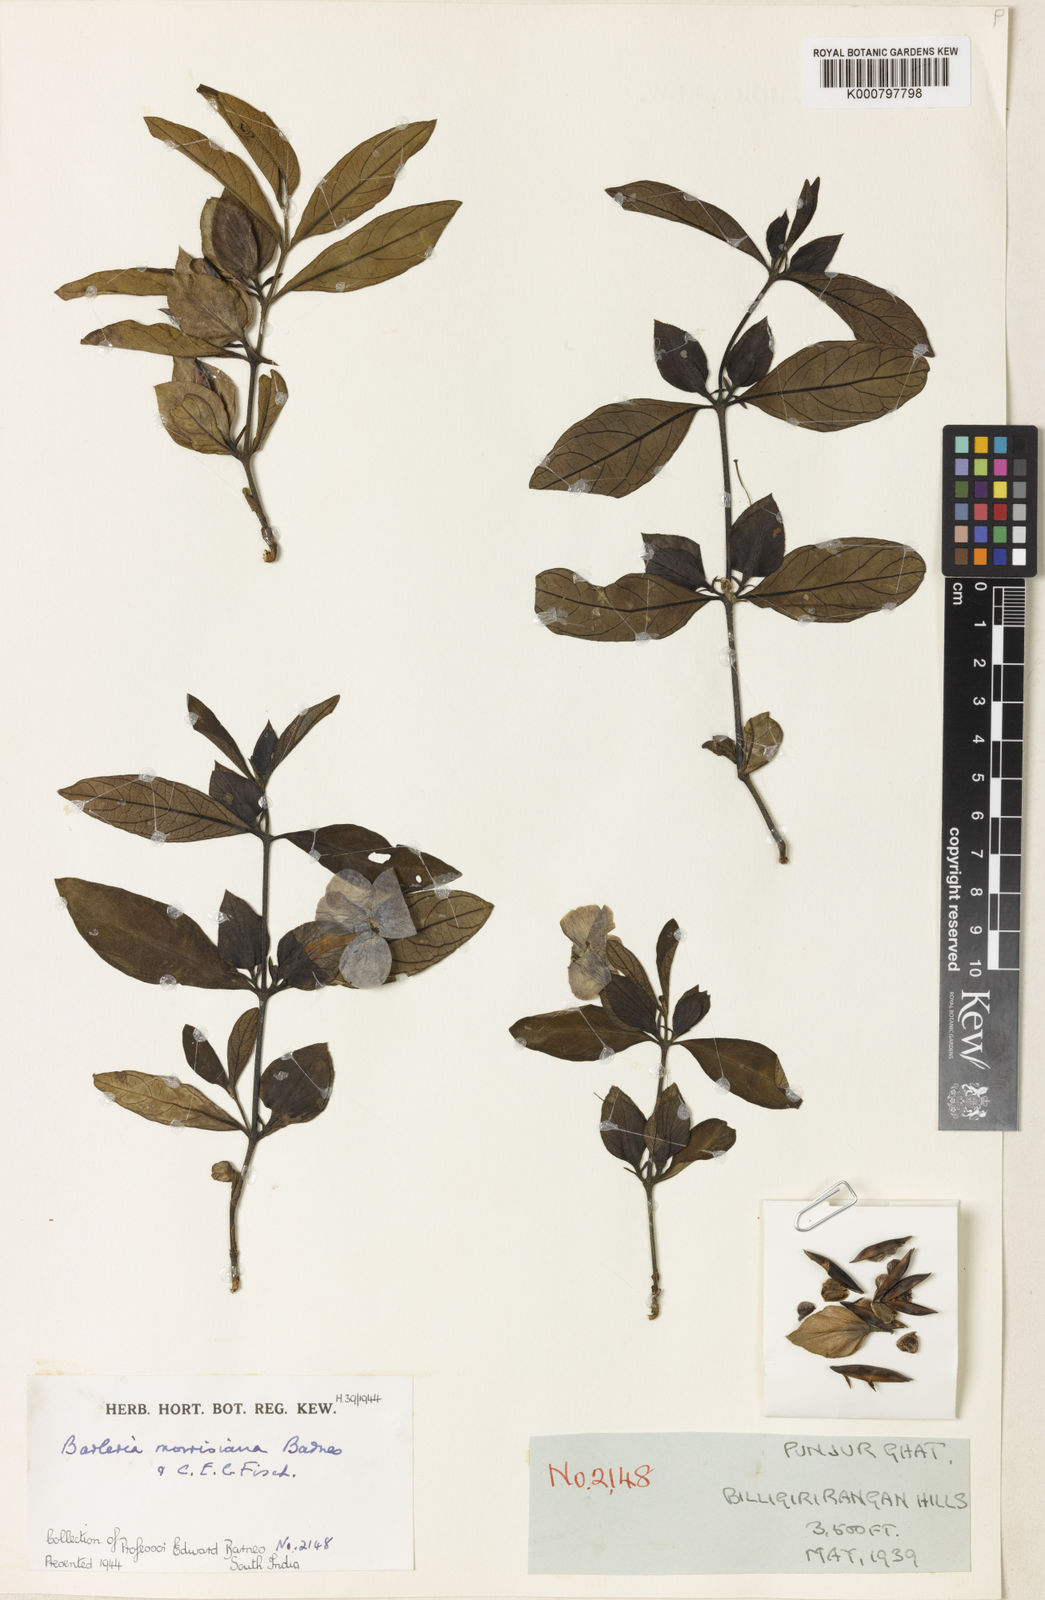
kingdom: Plantae
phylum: Tracheophyta
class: Magnoliopsida
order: Lamiales
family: Acanthaceae
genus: Barleria
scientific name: Barleria montana
